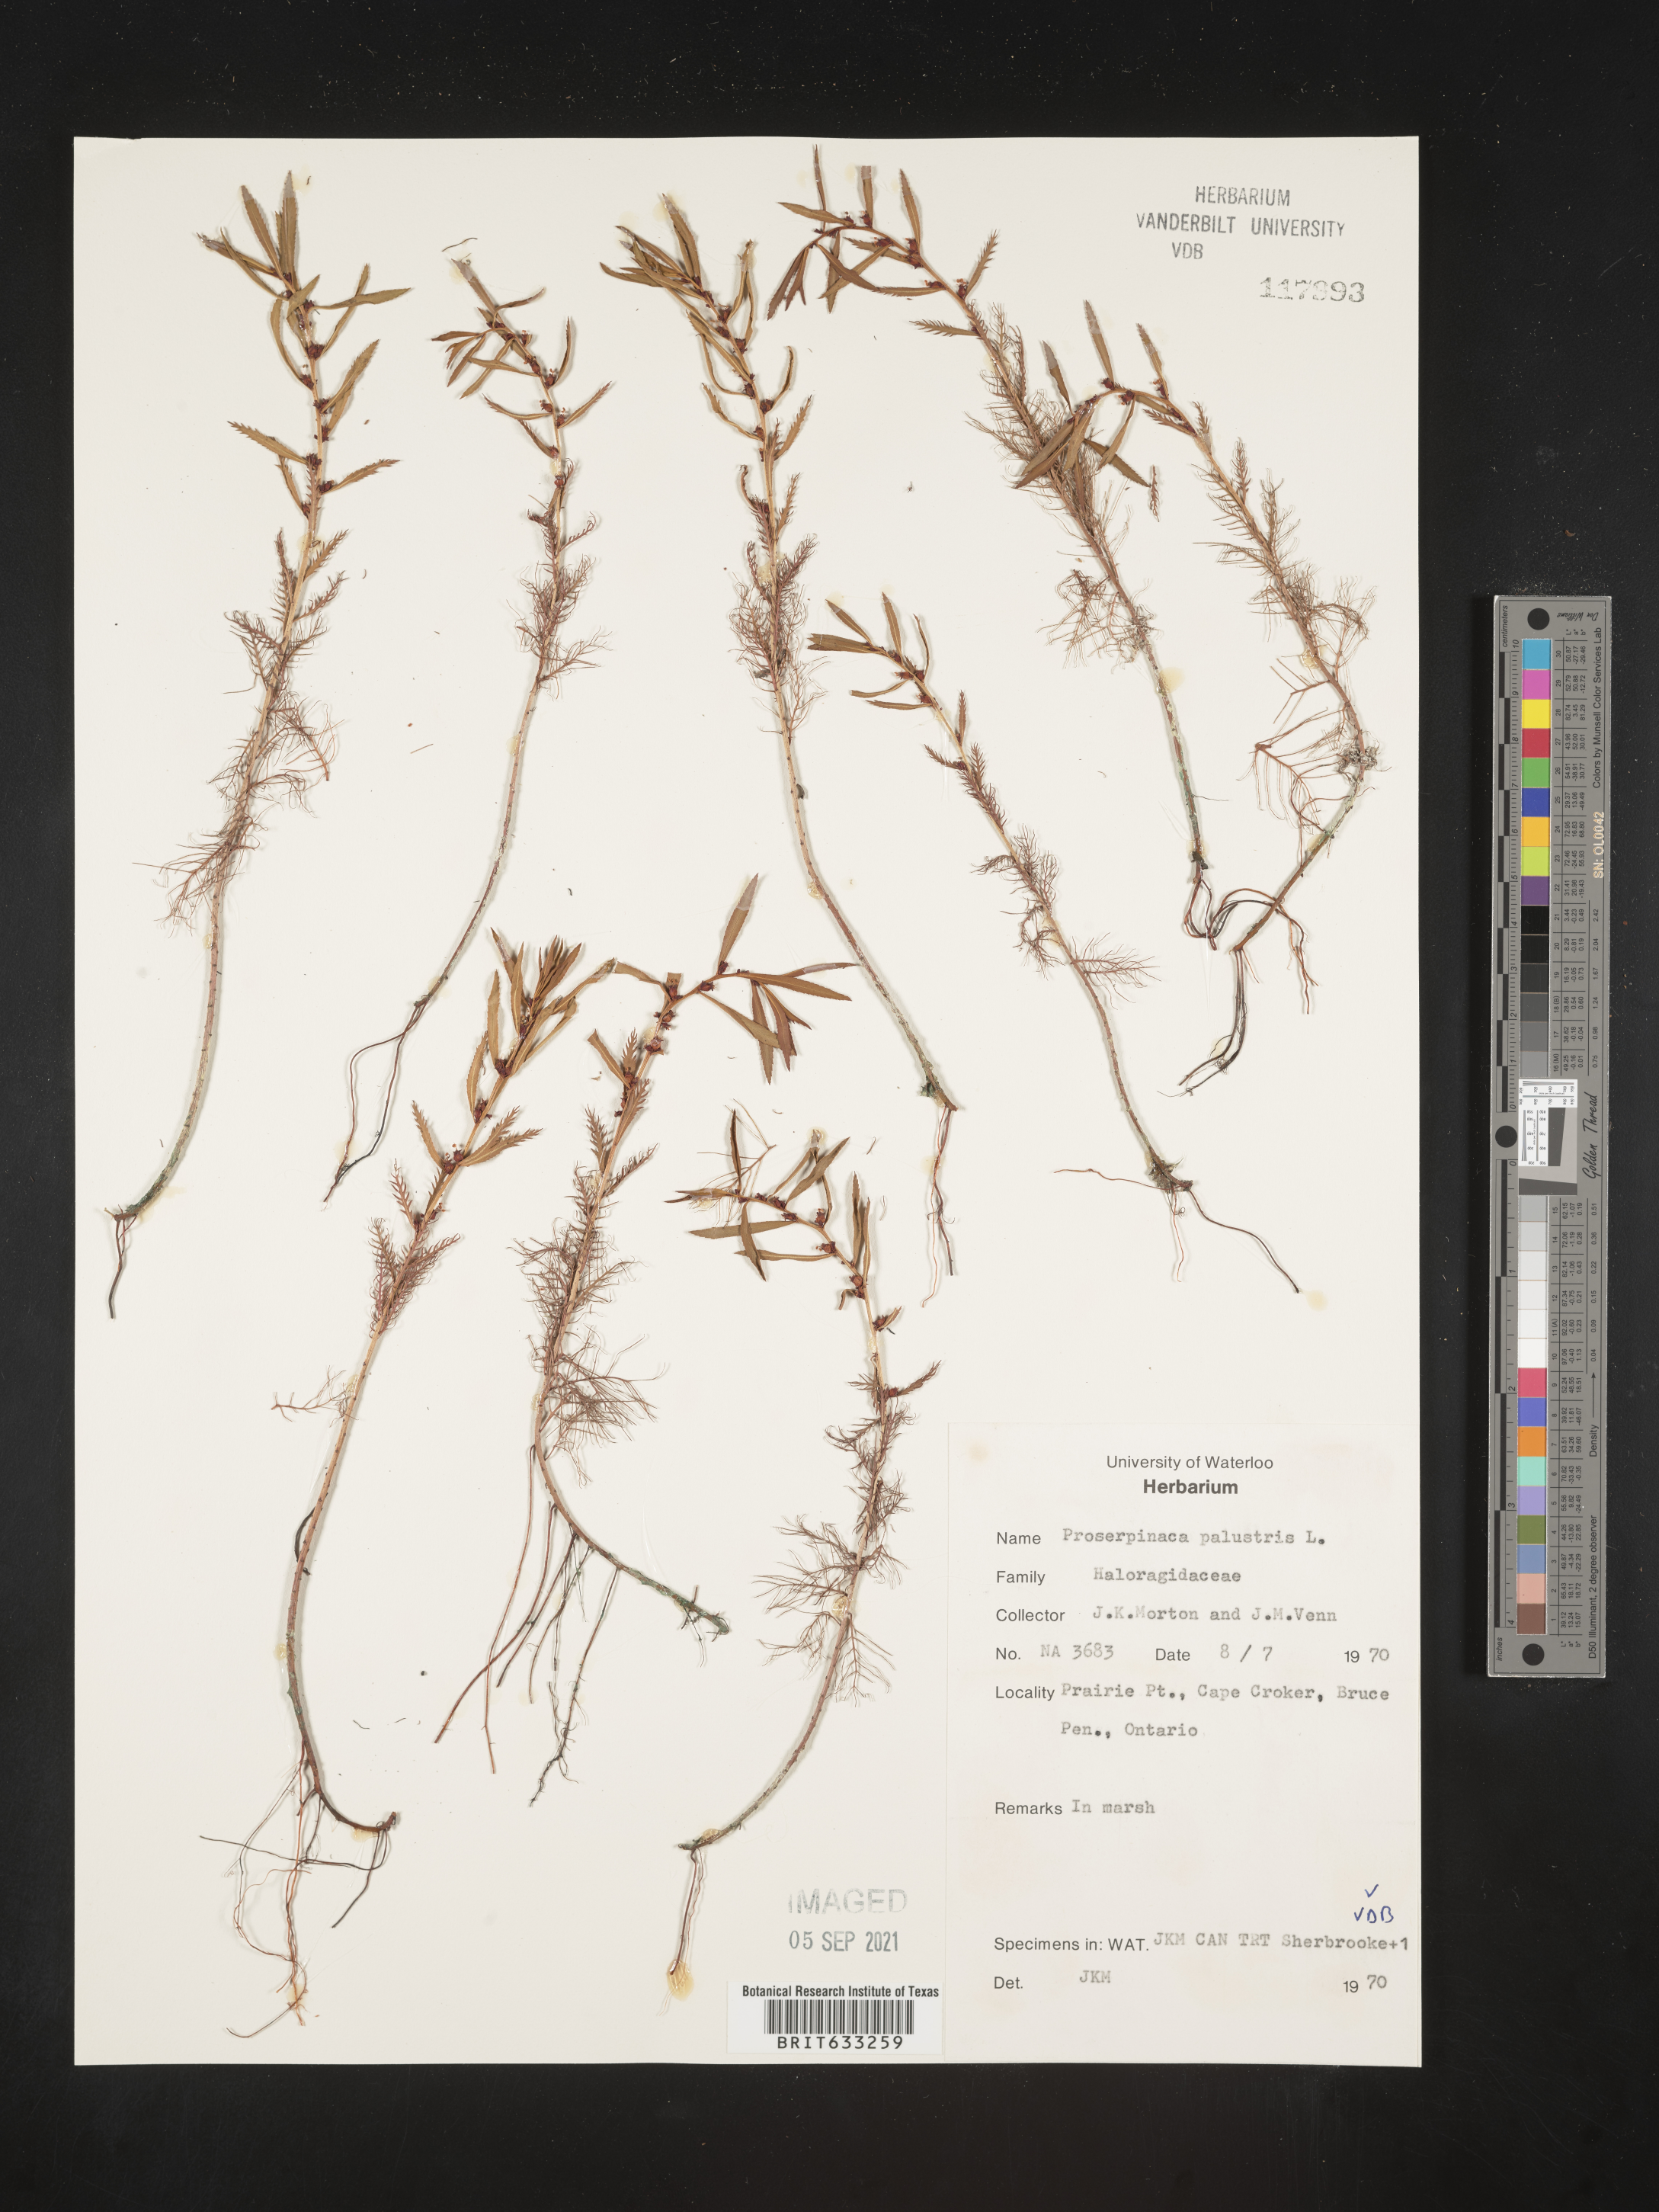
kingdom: Plantae
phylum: Tracheophyta
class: Magnoliopsida
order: Saxifragales
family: Haloragaceae
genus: Proserpinaca
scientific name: Proserpinaca
